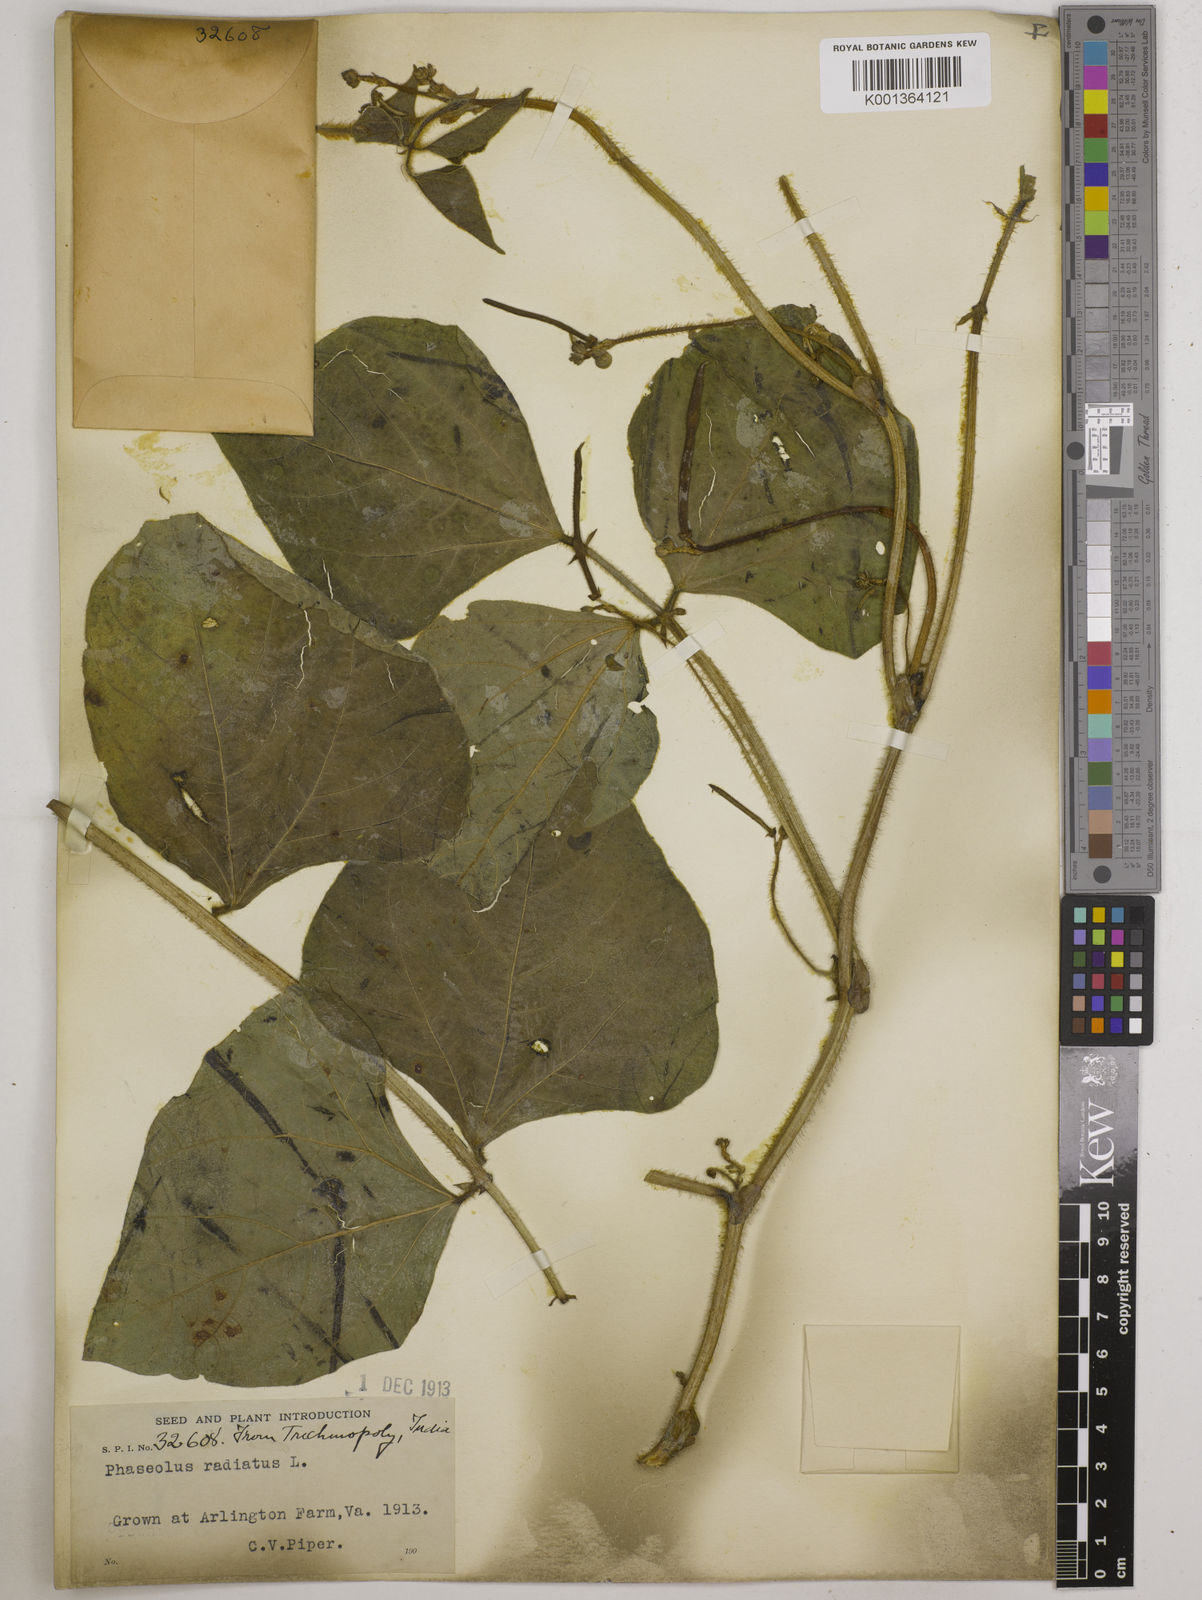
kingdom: Plantae
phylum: Tracheophyta
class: Magnoliopsida
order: Fabales
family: Fabaceae
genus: Vigna
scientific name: Vigna radiata
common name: Mung-bean
